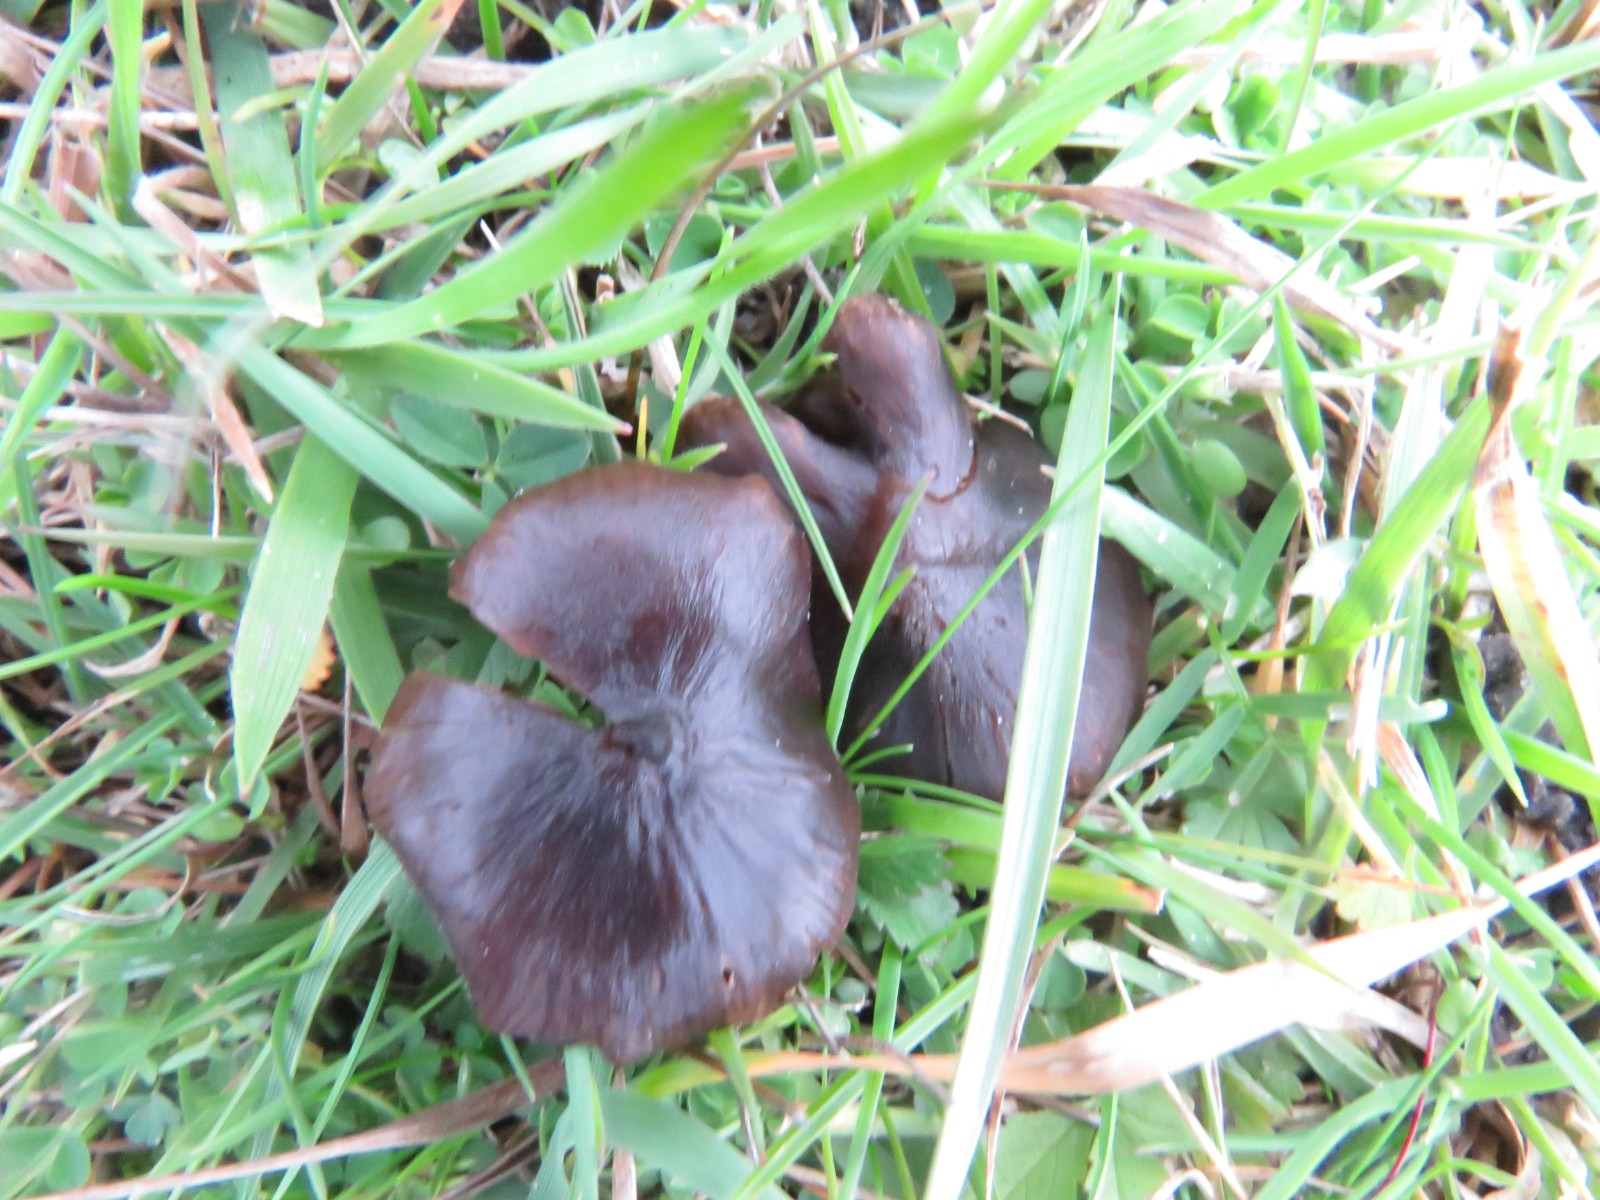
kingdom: Fungi
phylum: Basidiomycota
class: Agaricomycetes
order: Agaricales
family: Entolomataceae
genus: Entoloma
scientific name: Entoloma
